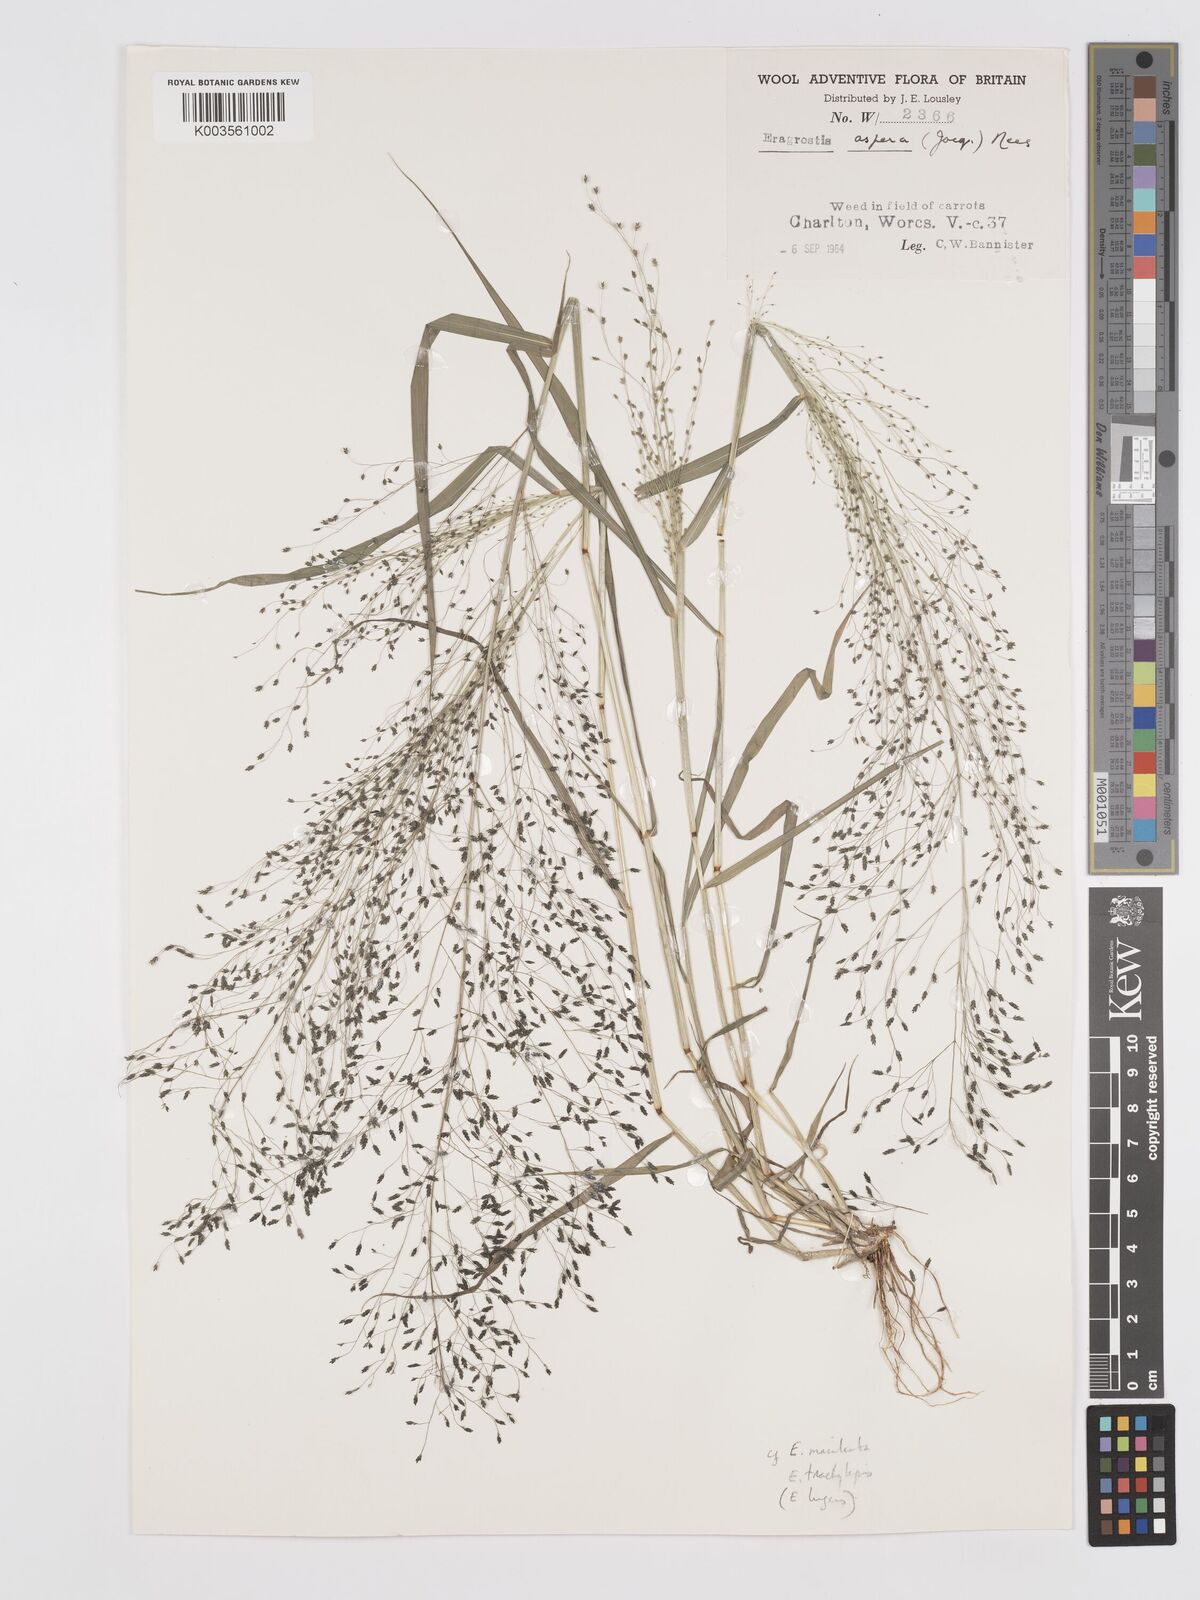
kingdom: Plantae
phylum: Tracheophyta
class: Liliopsida
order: Poales
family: Poaceae
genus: Eragrostis
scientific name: Eragrostis
